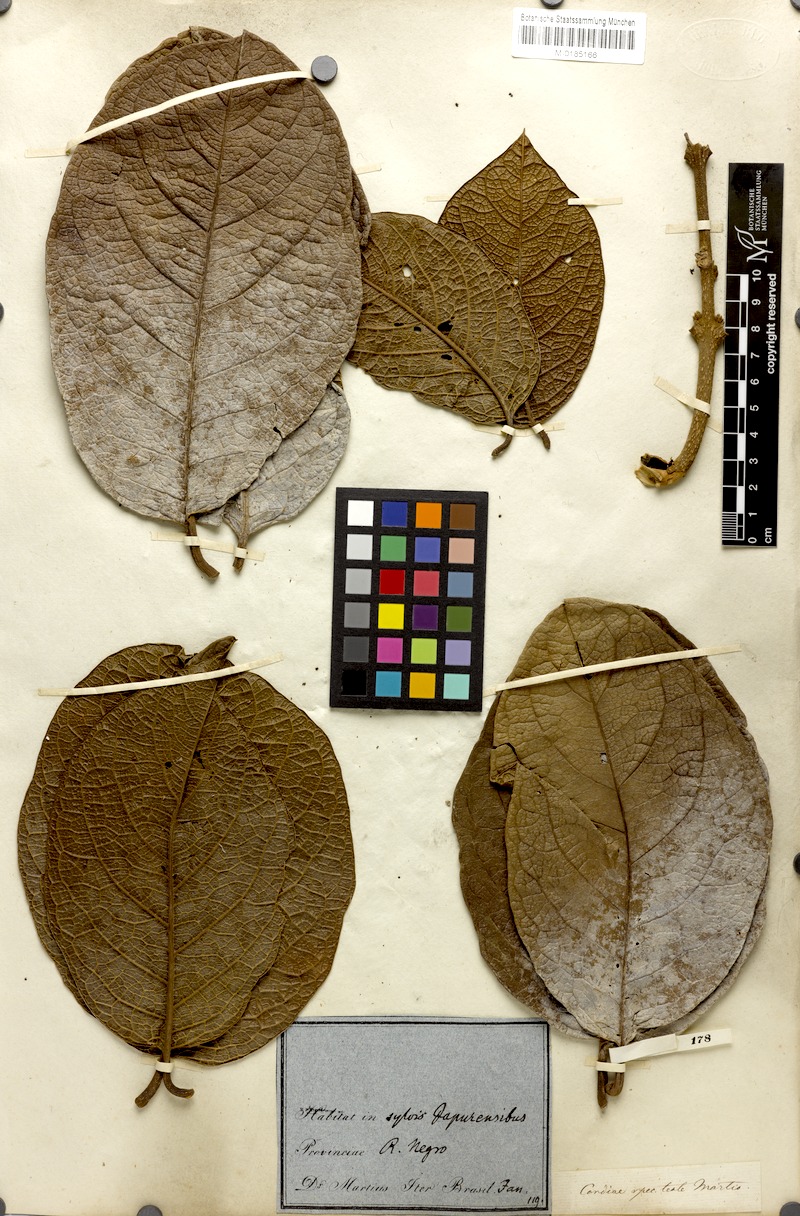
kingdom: Plantae
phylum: Tracheophyta
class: Magnoliopsida
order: Boraginales
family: Cordiaceae
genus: Cordia
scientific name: Cordia
